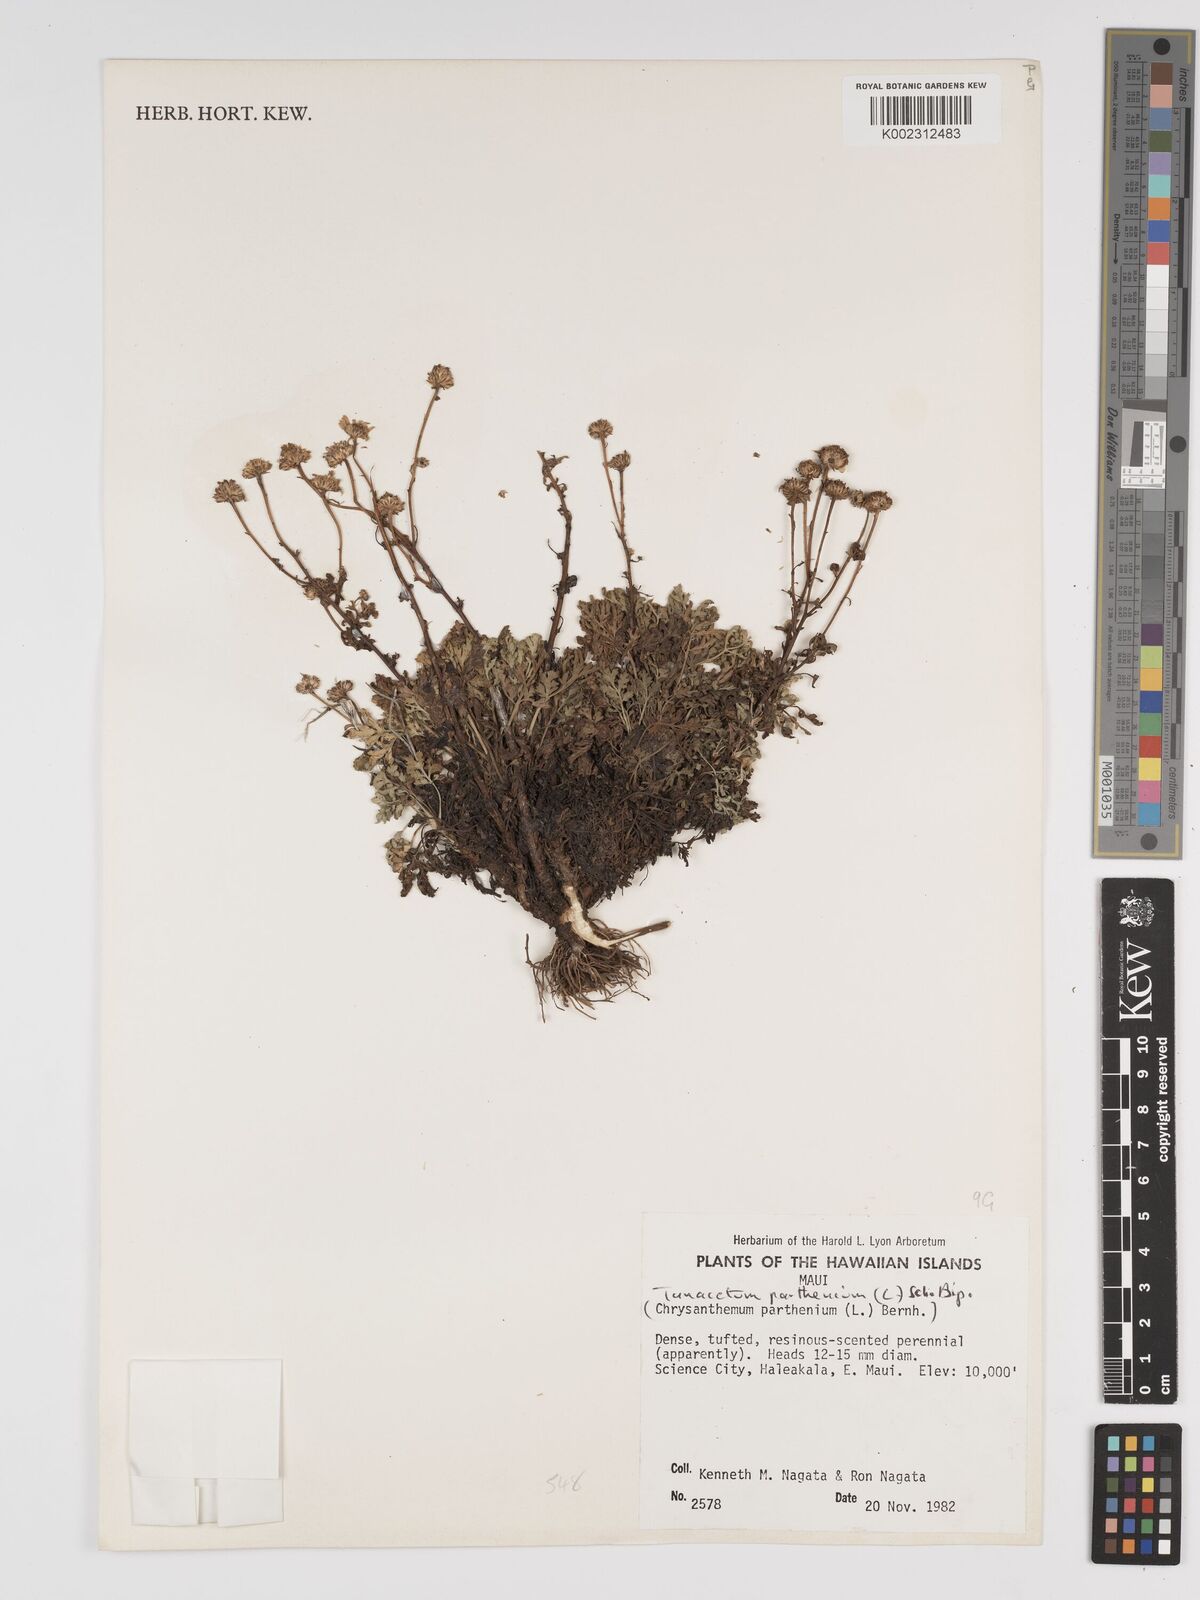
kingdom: Plantae
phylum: Tracheophyta
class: Magnoliopsida
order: Asterales
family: Asteraceae
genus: Tanacetum
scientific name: Tanacetum parthenium
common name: Feverfew
